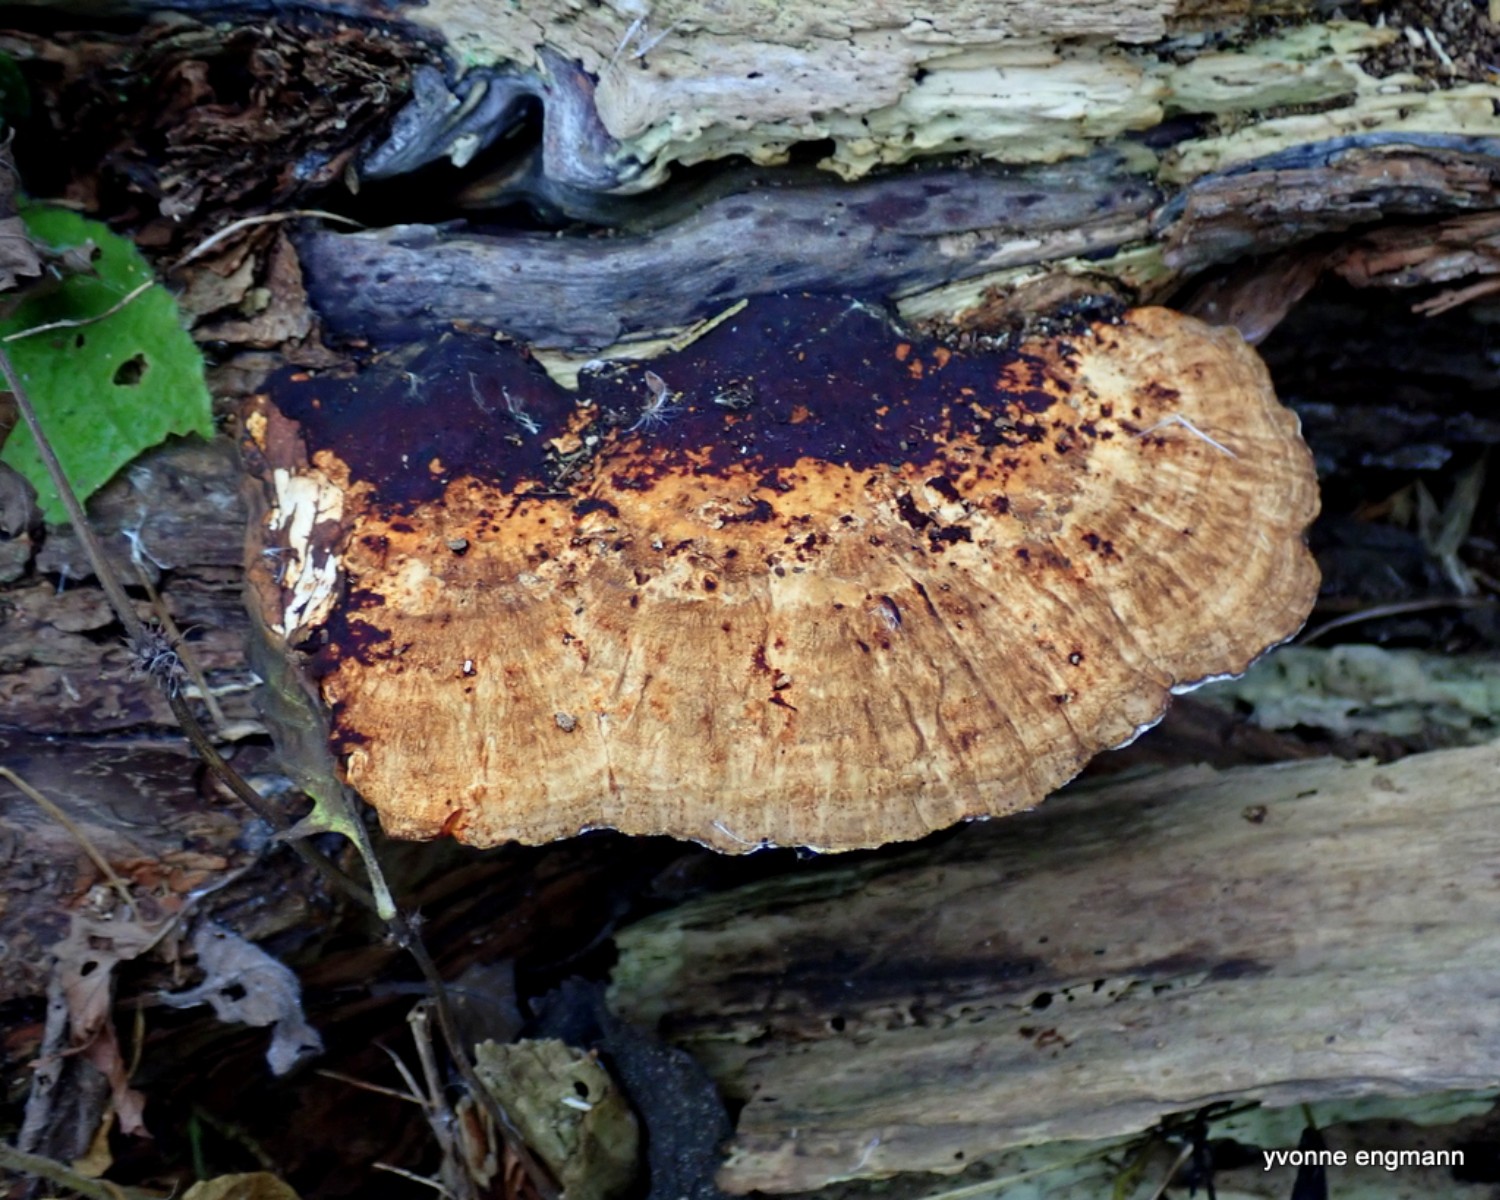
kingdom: Fungi
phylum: Basidiomycota
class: Agaricomycetes
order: Polyporales
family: Polyporaceae
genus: Daedaleopsis
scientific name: Daedaleopsis confragosa
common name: rødmende læderporesvamp
